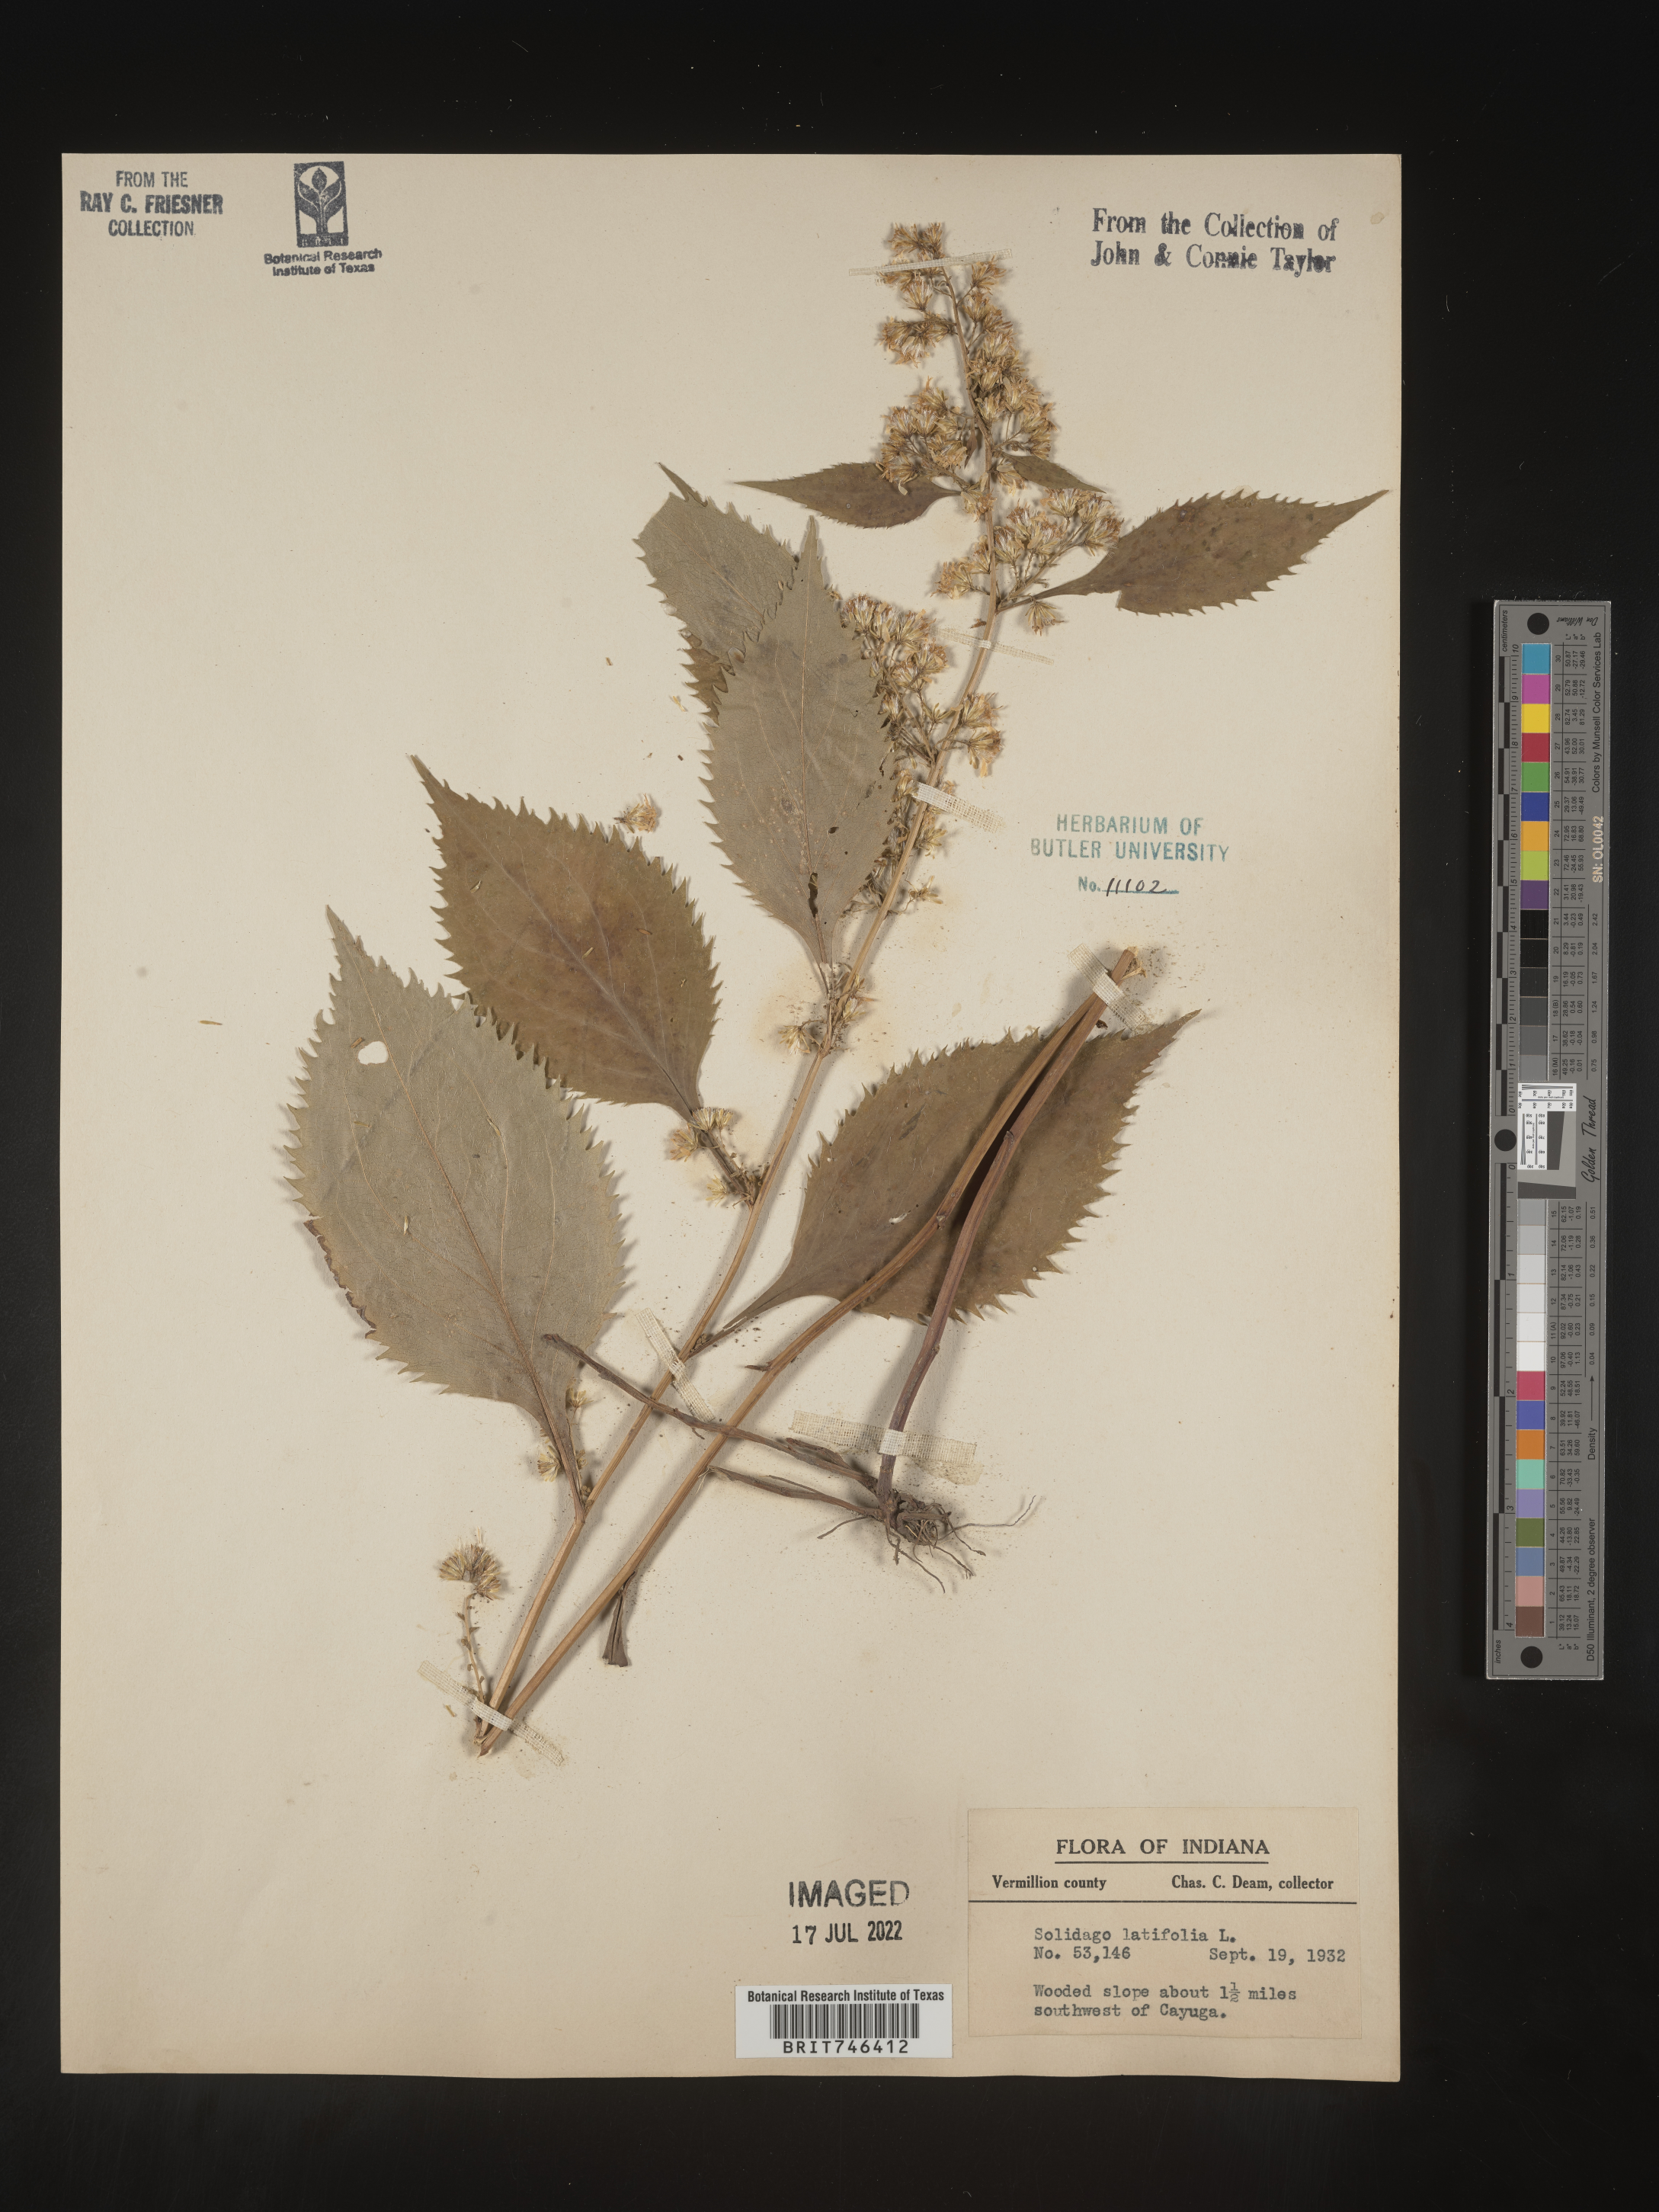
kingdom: Plantae
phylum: Tracheophyta
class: Magnoliopsida
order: Asterales
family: Asteraceae
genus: Solidago
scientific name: Solidago flexicaulis
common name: Zig-zag goldenrod
